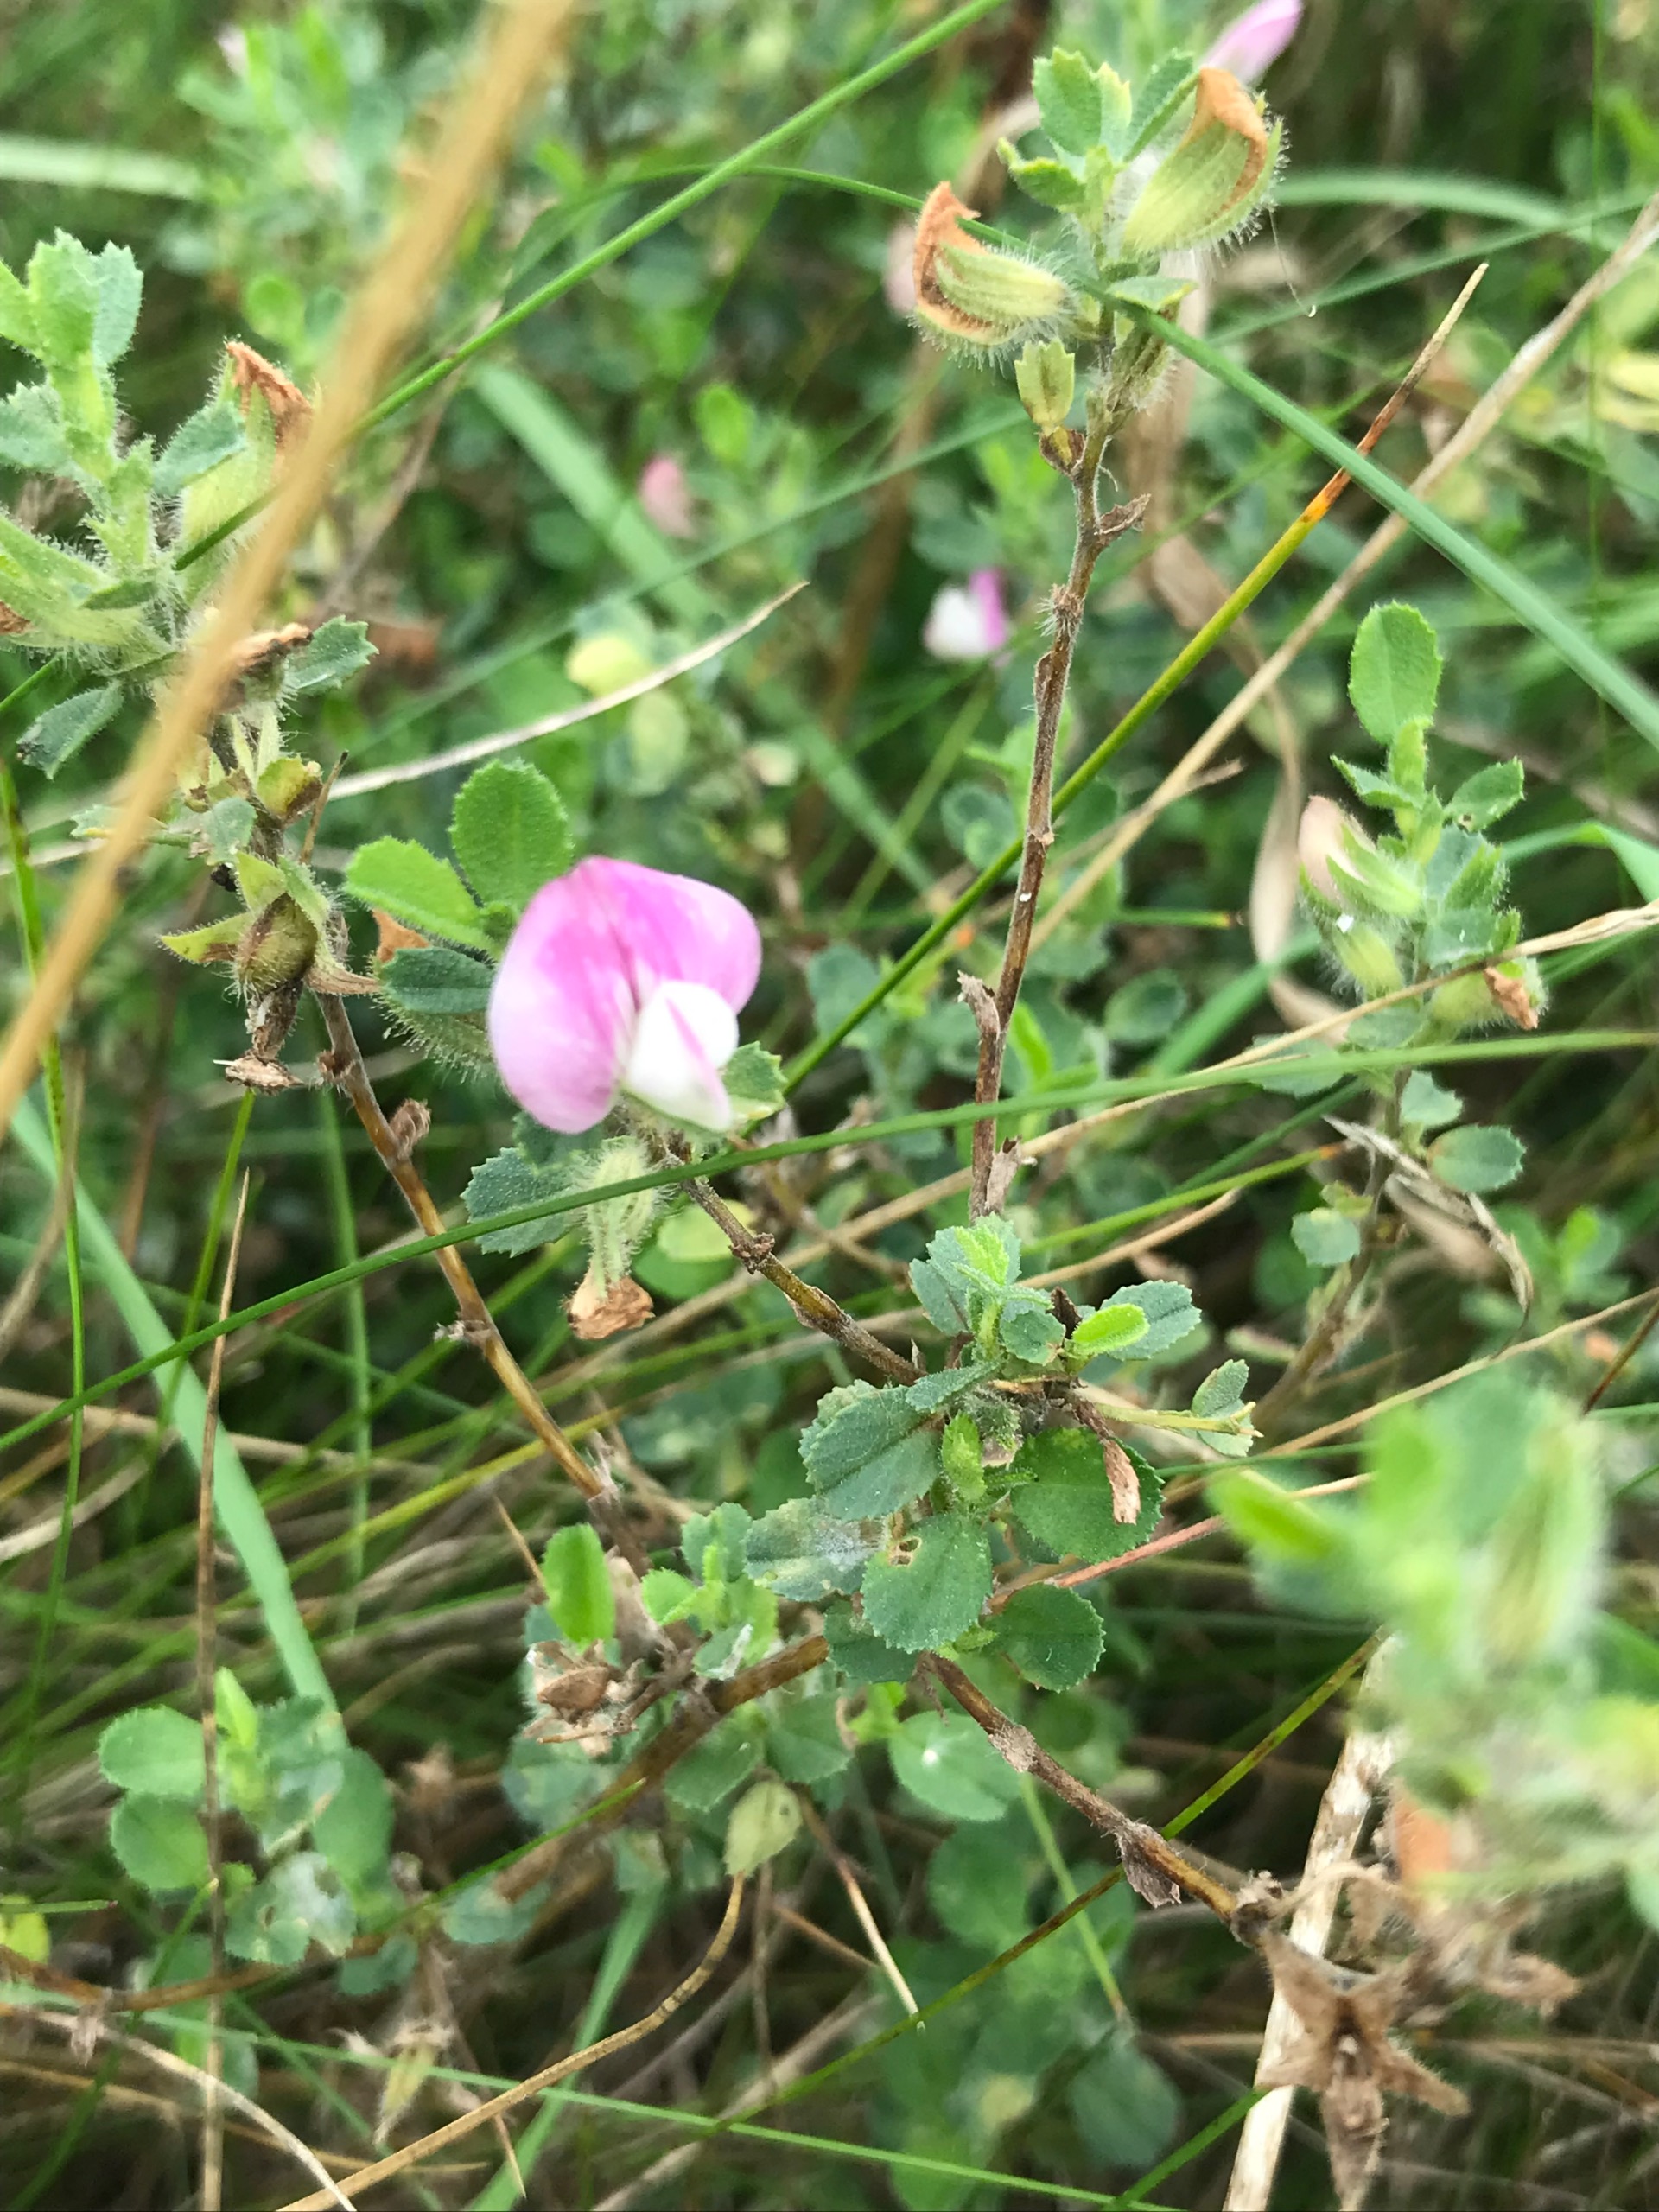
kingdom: Plantae
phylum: Tracheophyta
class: Magnoliopsida
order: Fabales
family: Fabaceae
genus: Ononis
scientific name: Ononis spinosa
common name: Mark-krageklo
